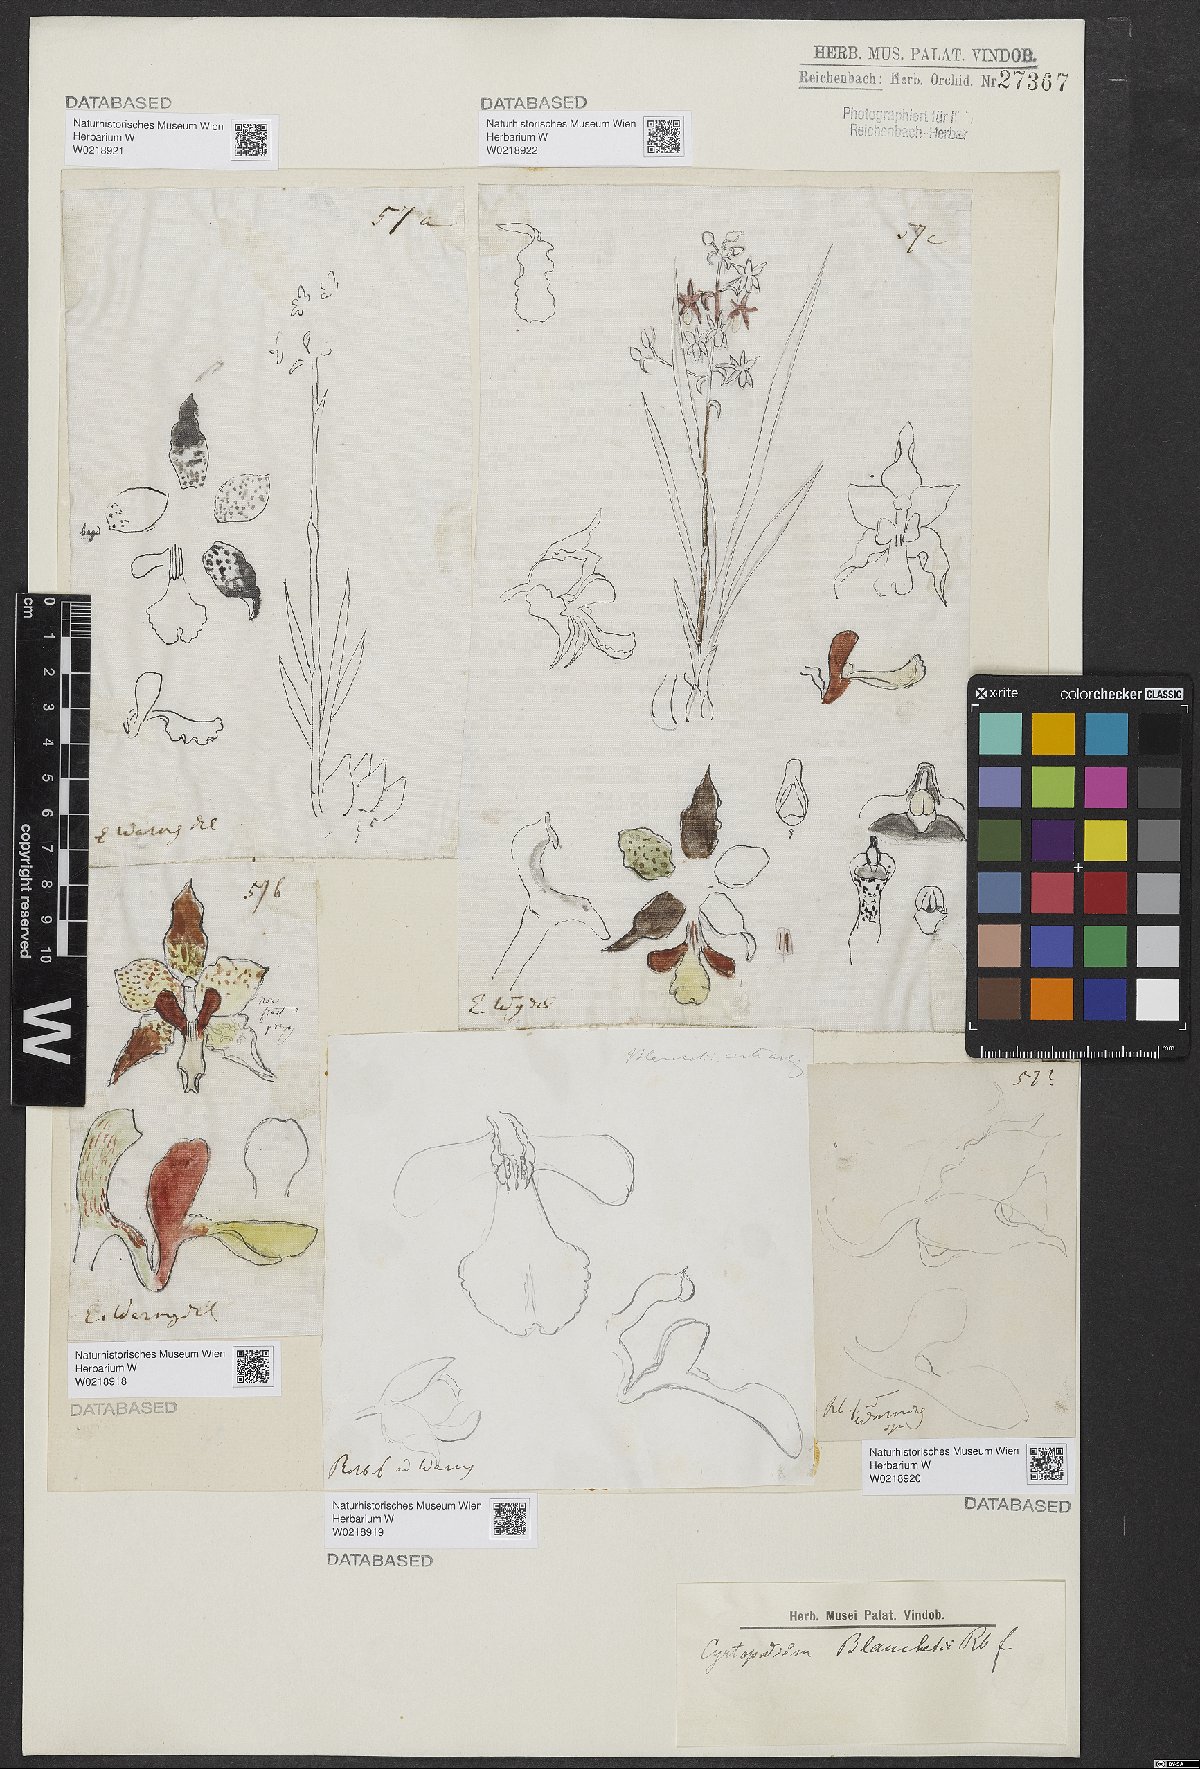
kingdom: Plantae
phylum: Tracheophyta
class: Liliopsida
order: Asparagales
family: Orchidaceae
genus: Cyrtopodium
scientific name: Cyrtopodium blanchetii
